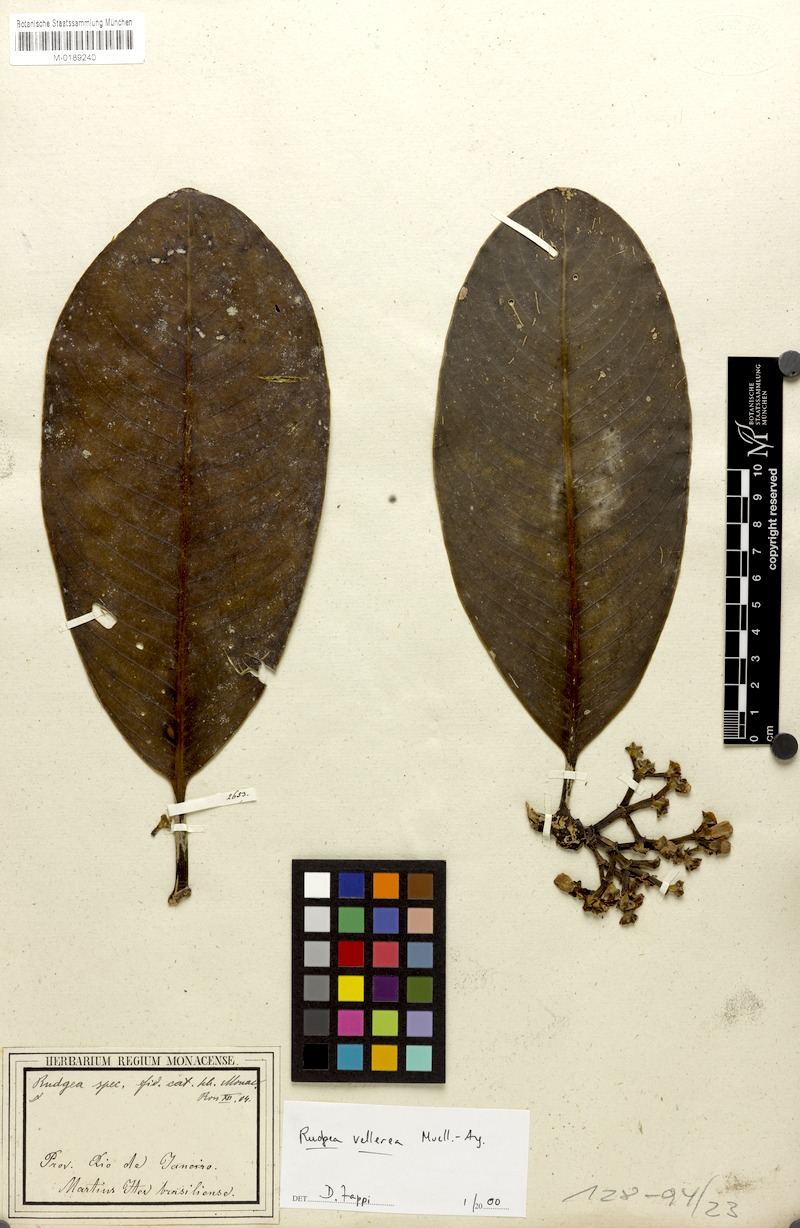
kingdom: Plantae
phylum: Tracheophyta
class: Magnoliopsida
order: Gentianales
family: Rubiaceae
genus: Rudgea
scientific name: Rudgea vellerea
